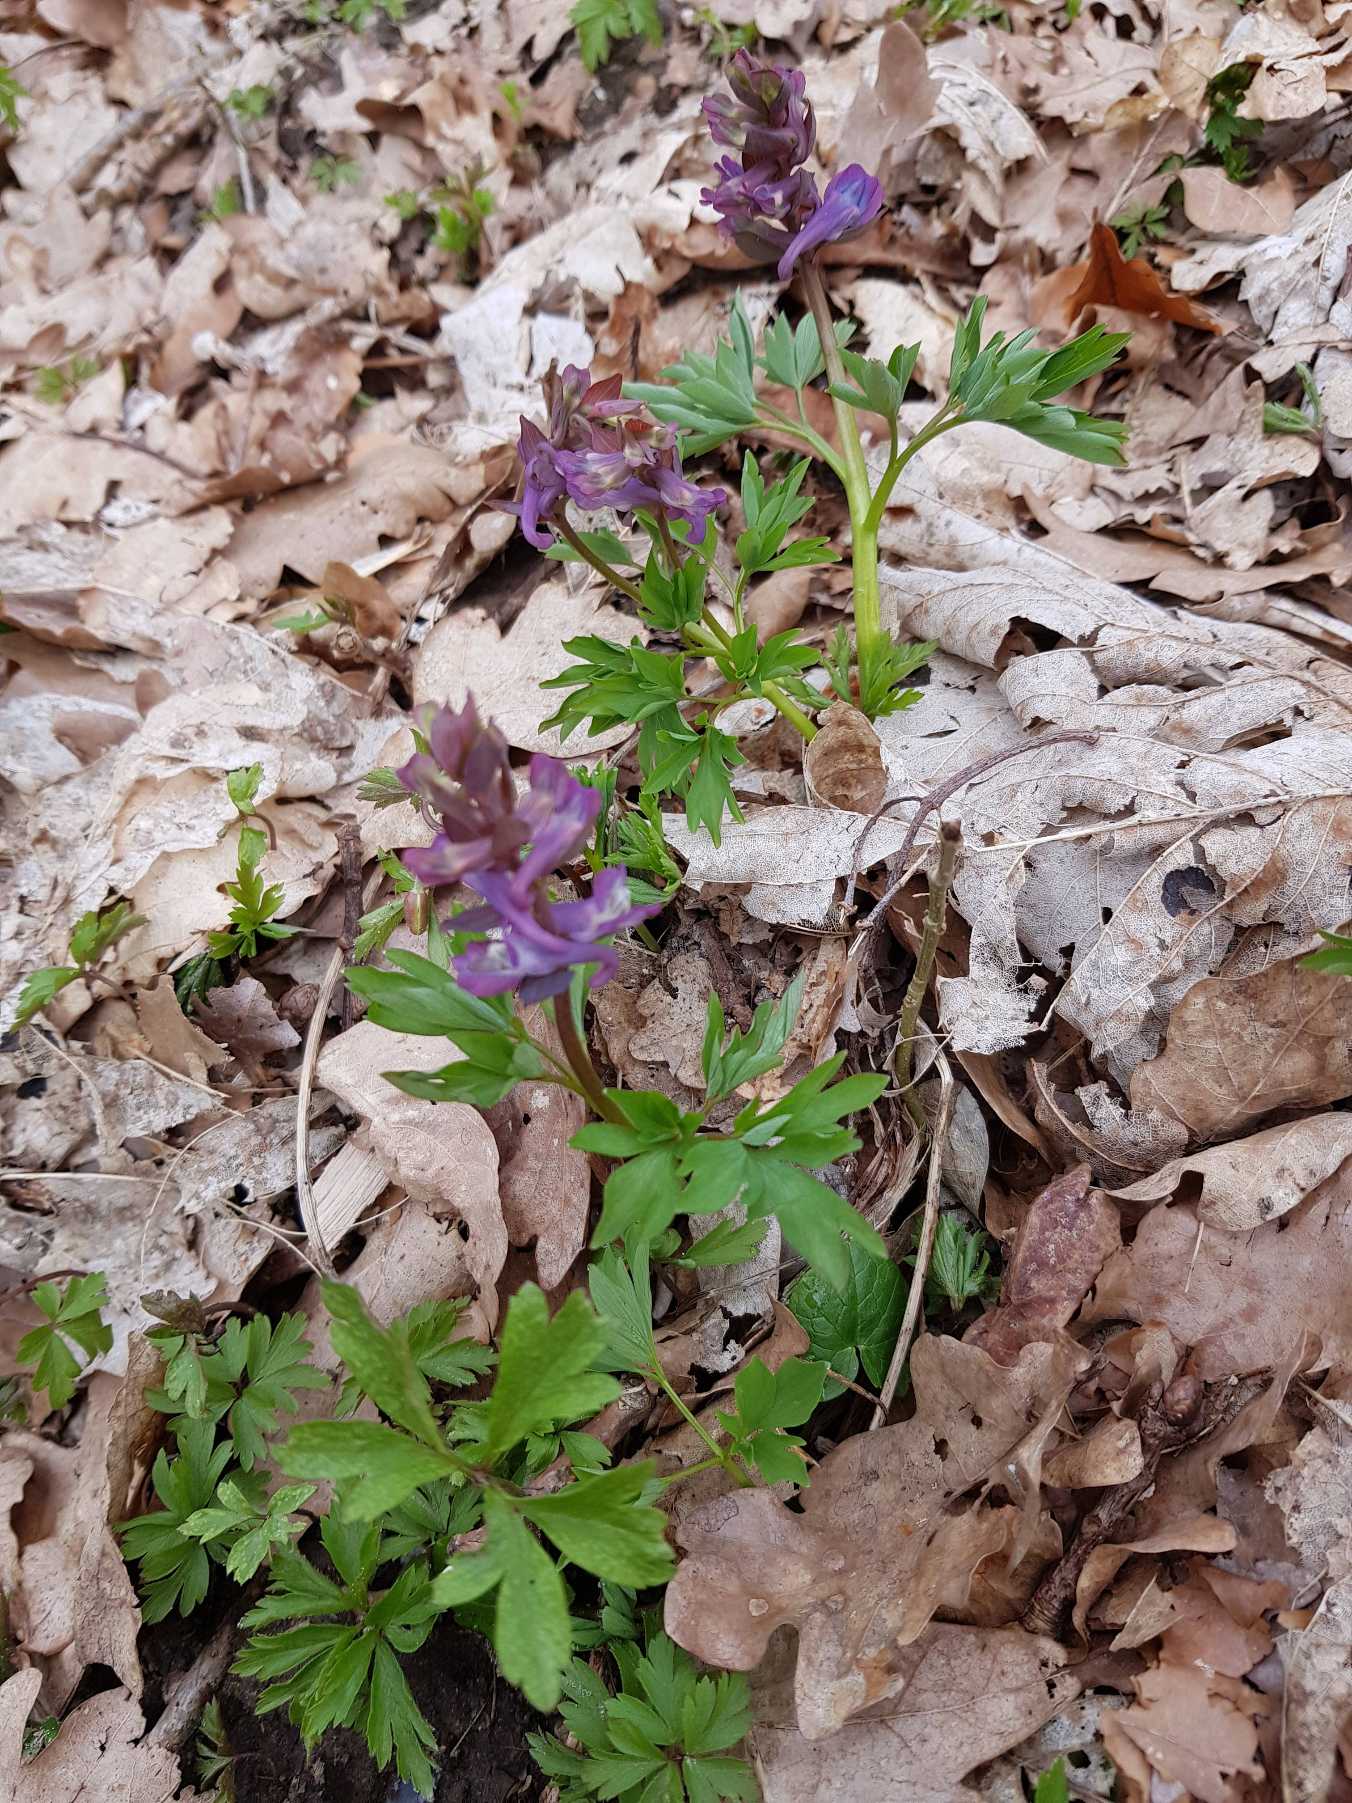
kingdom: Plantae
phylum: Tracheophyta
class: Magnoliopsida
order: Ranunculales
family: Papaveraceae
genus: Corydalis
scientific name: Corydalis cava
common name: Hulrodet lærkespore
